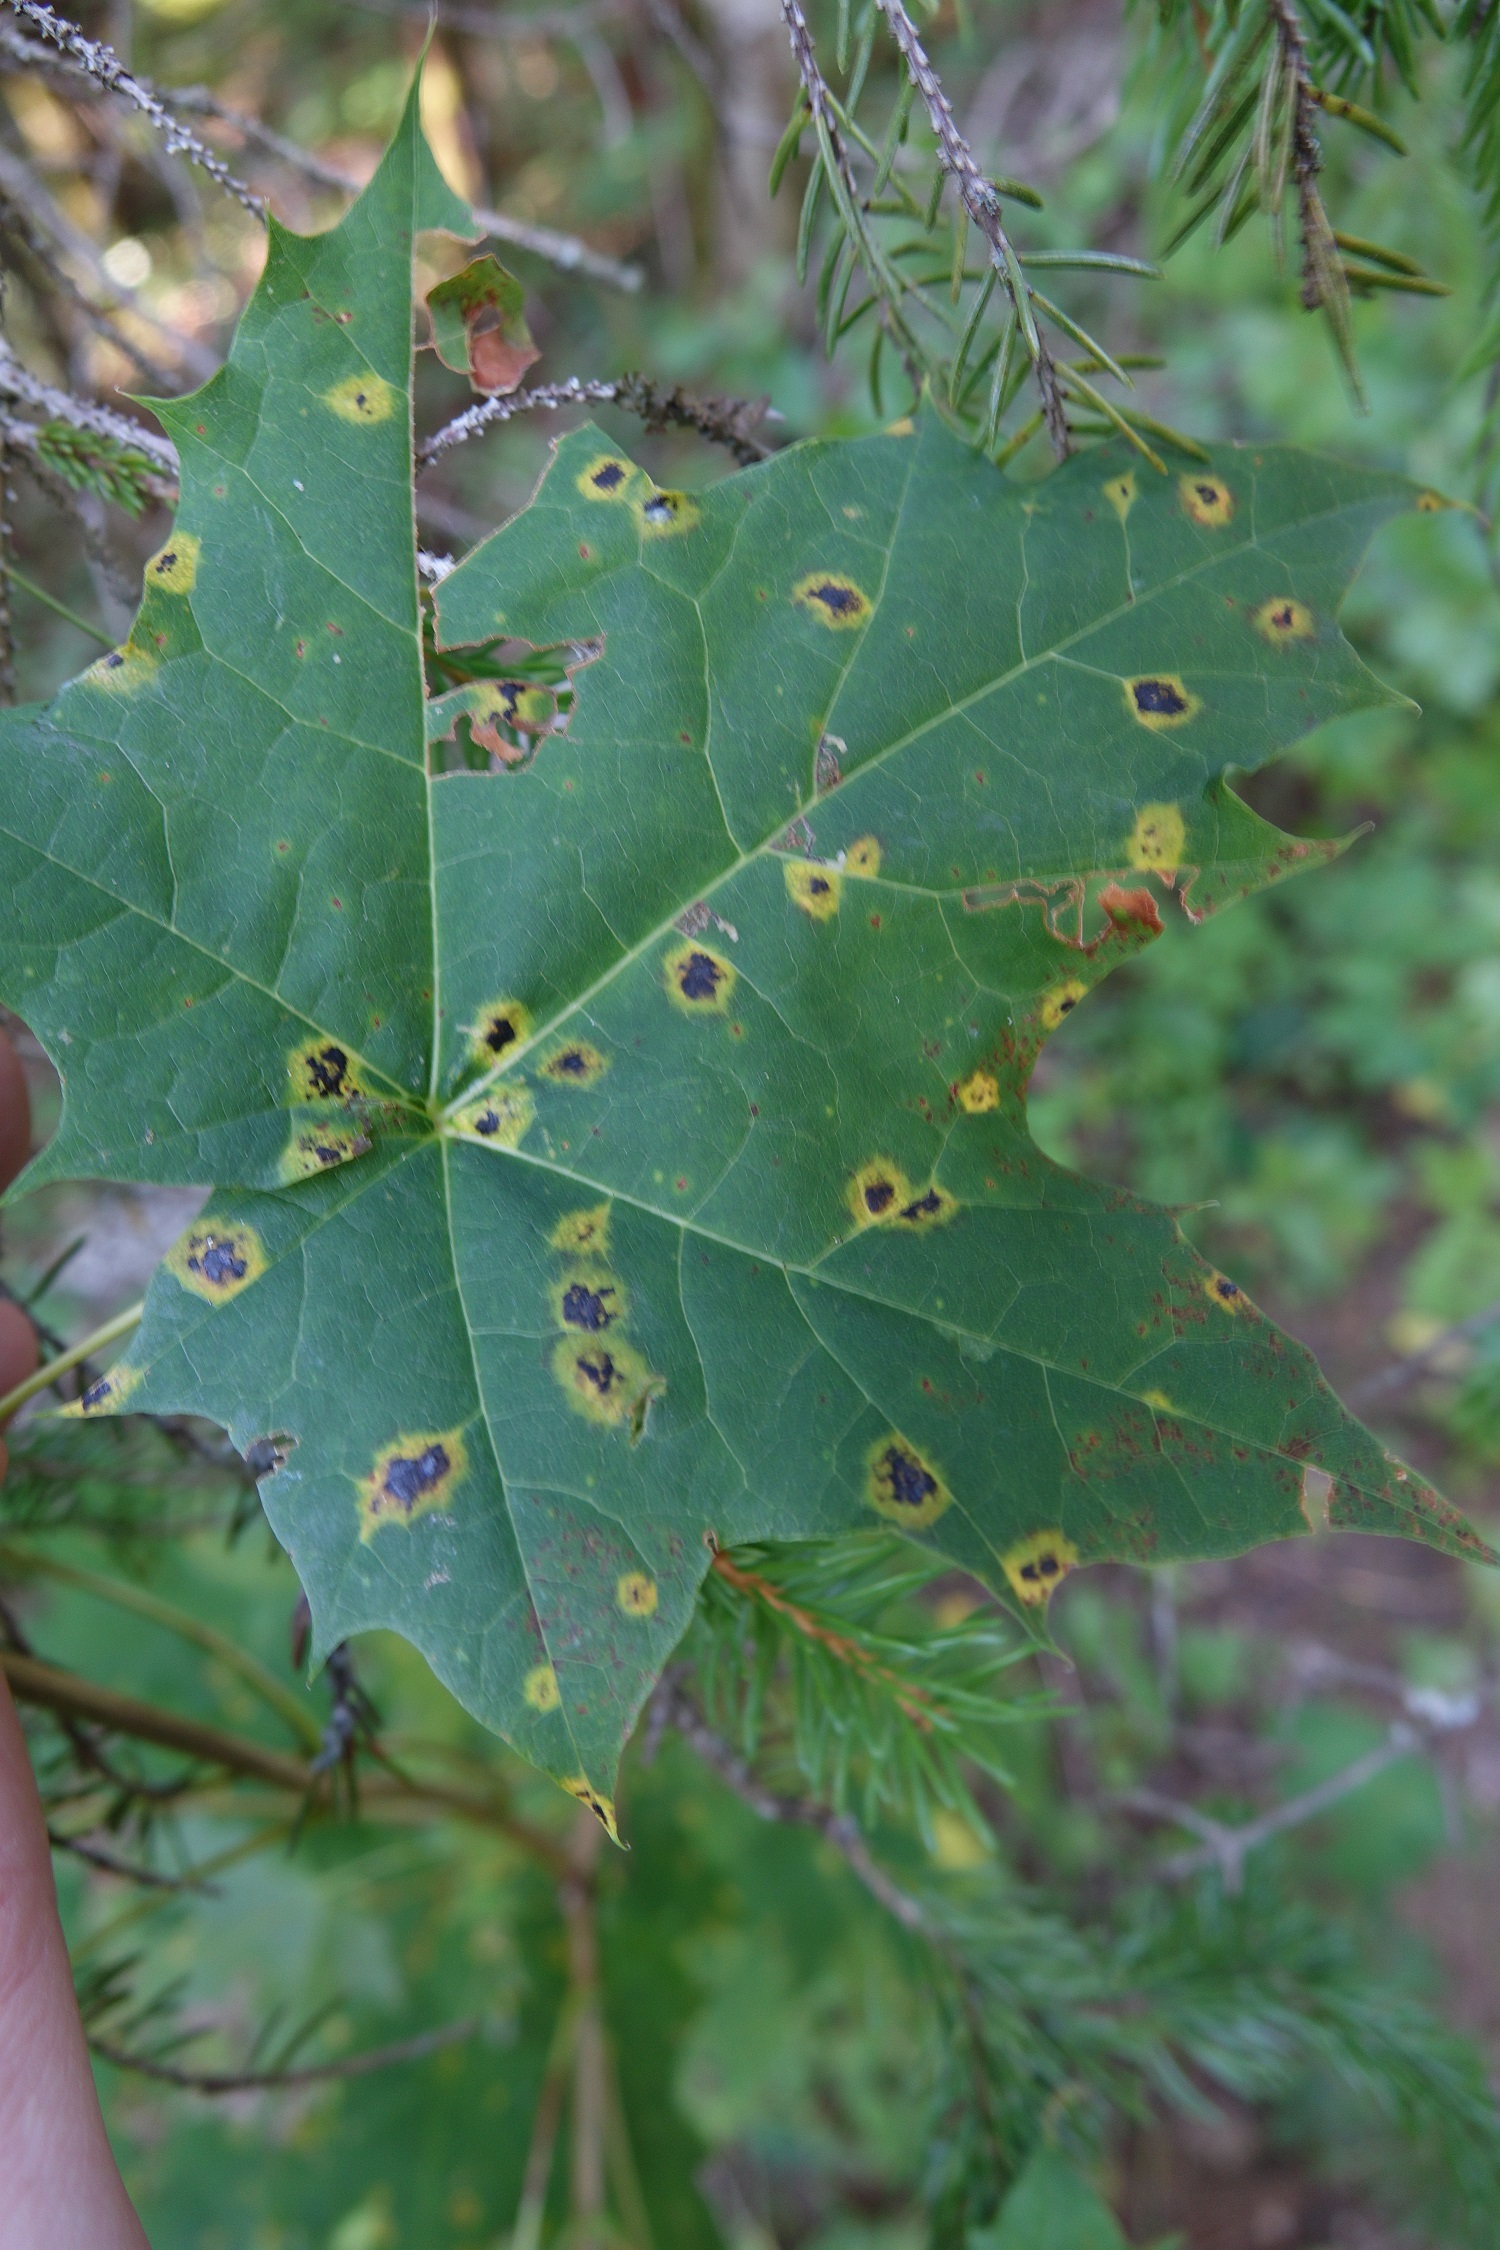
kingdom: Fungi
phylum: Ascomycota
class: Leotiomycetes
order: Rhytismatales
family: Rhytismataceae
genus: Rhytisma
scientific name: Rhytisma acerinum
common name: European tar spot
